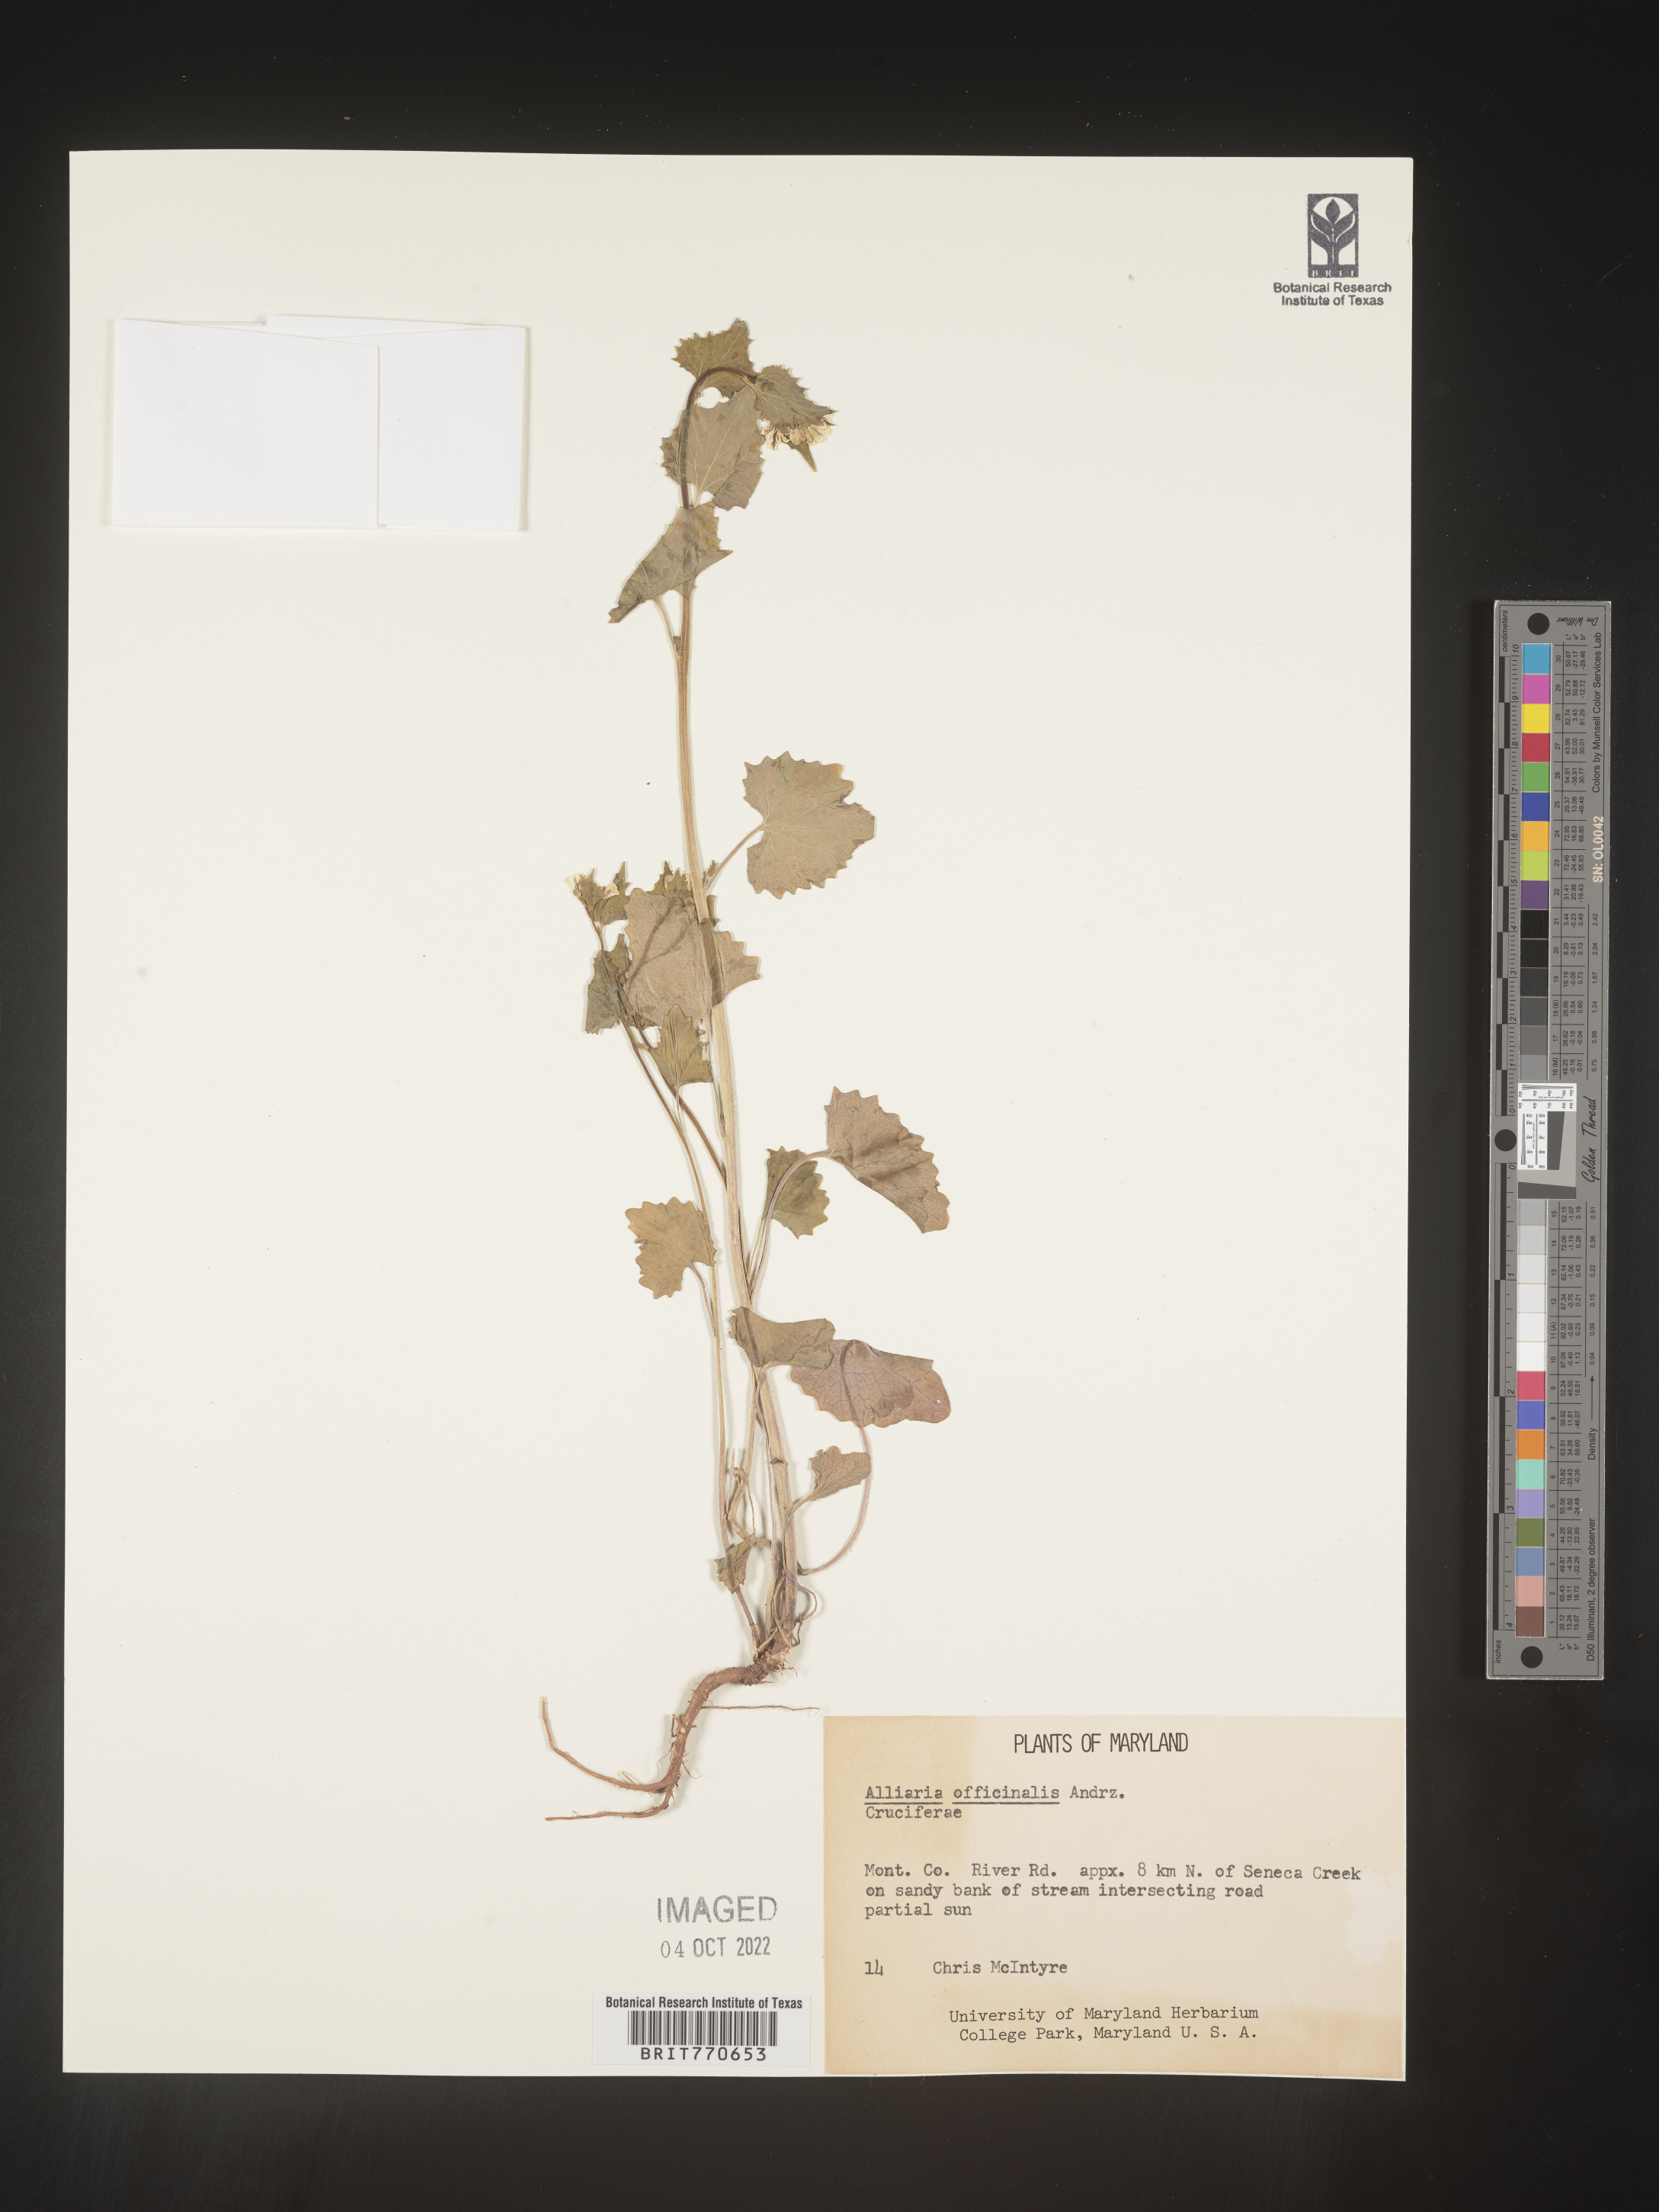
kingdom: Plantae
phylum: Tracheophyta
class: Magnoliopsida
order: Brassicales
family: Brassicaceae
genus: Alliaria
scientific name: Alliaria
